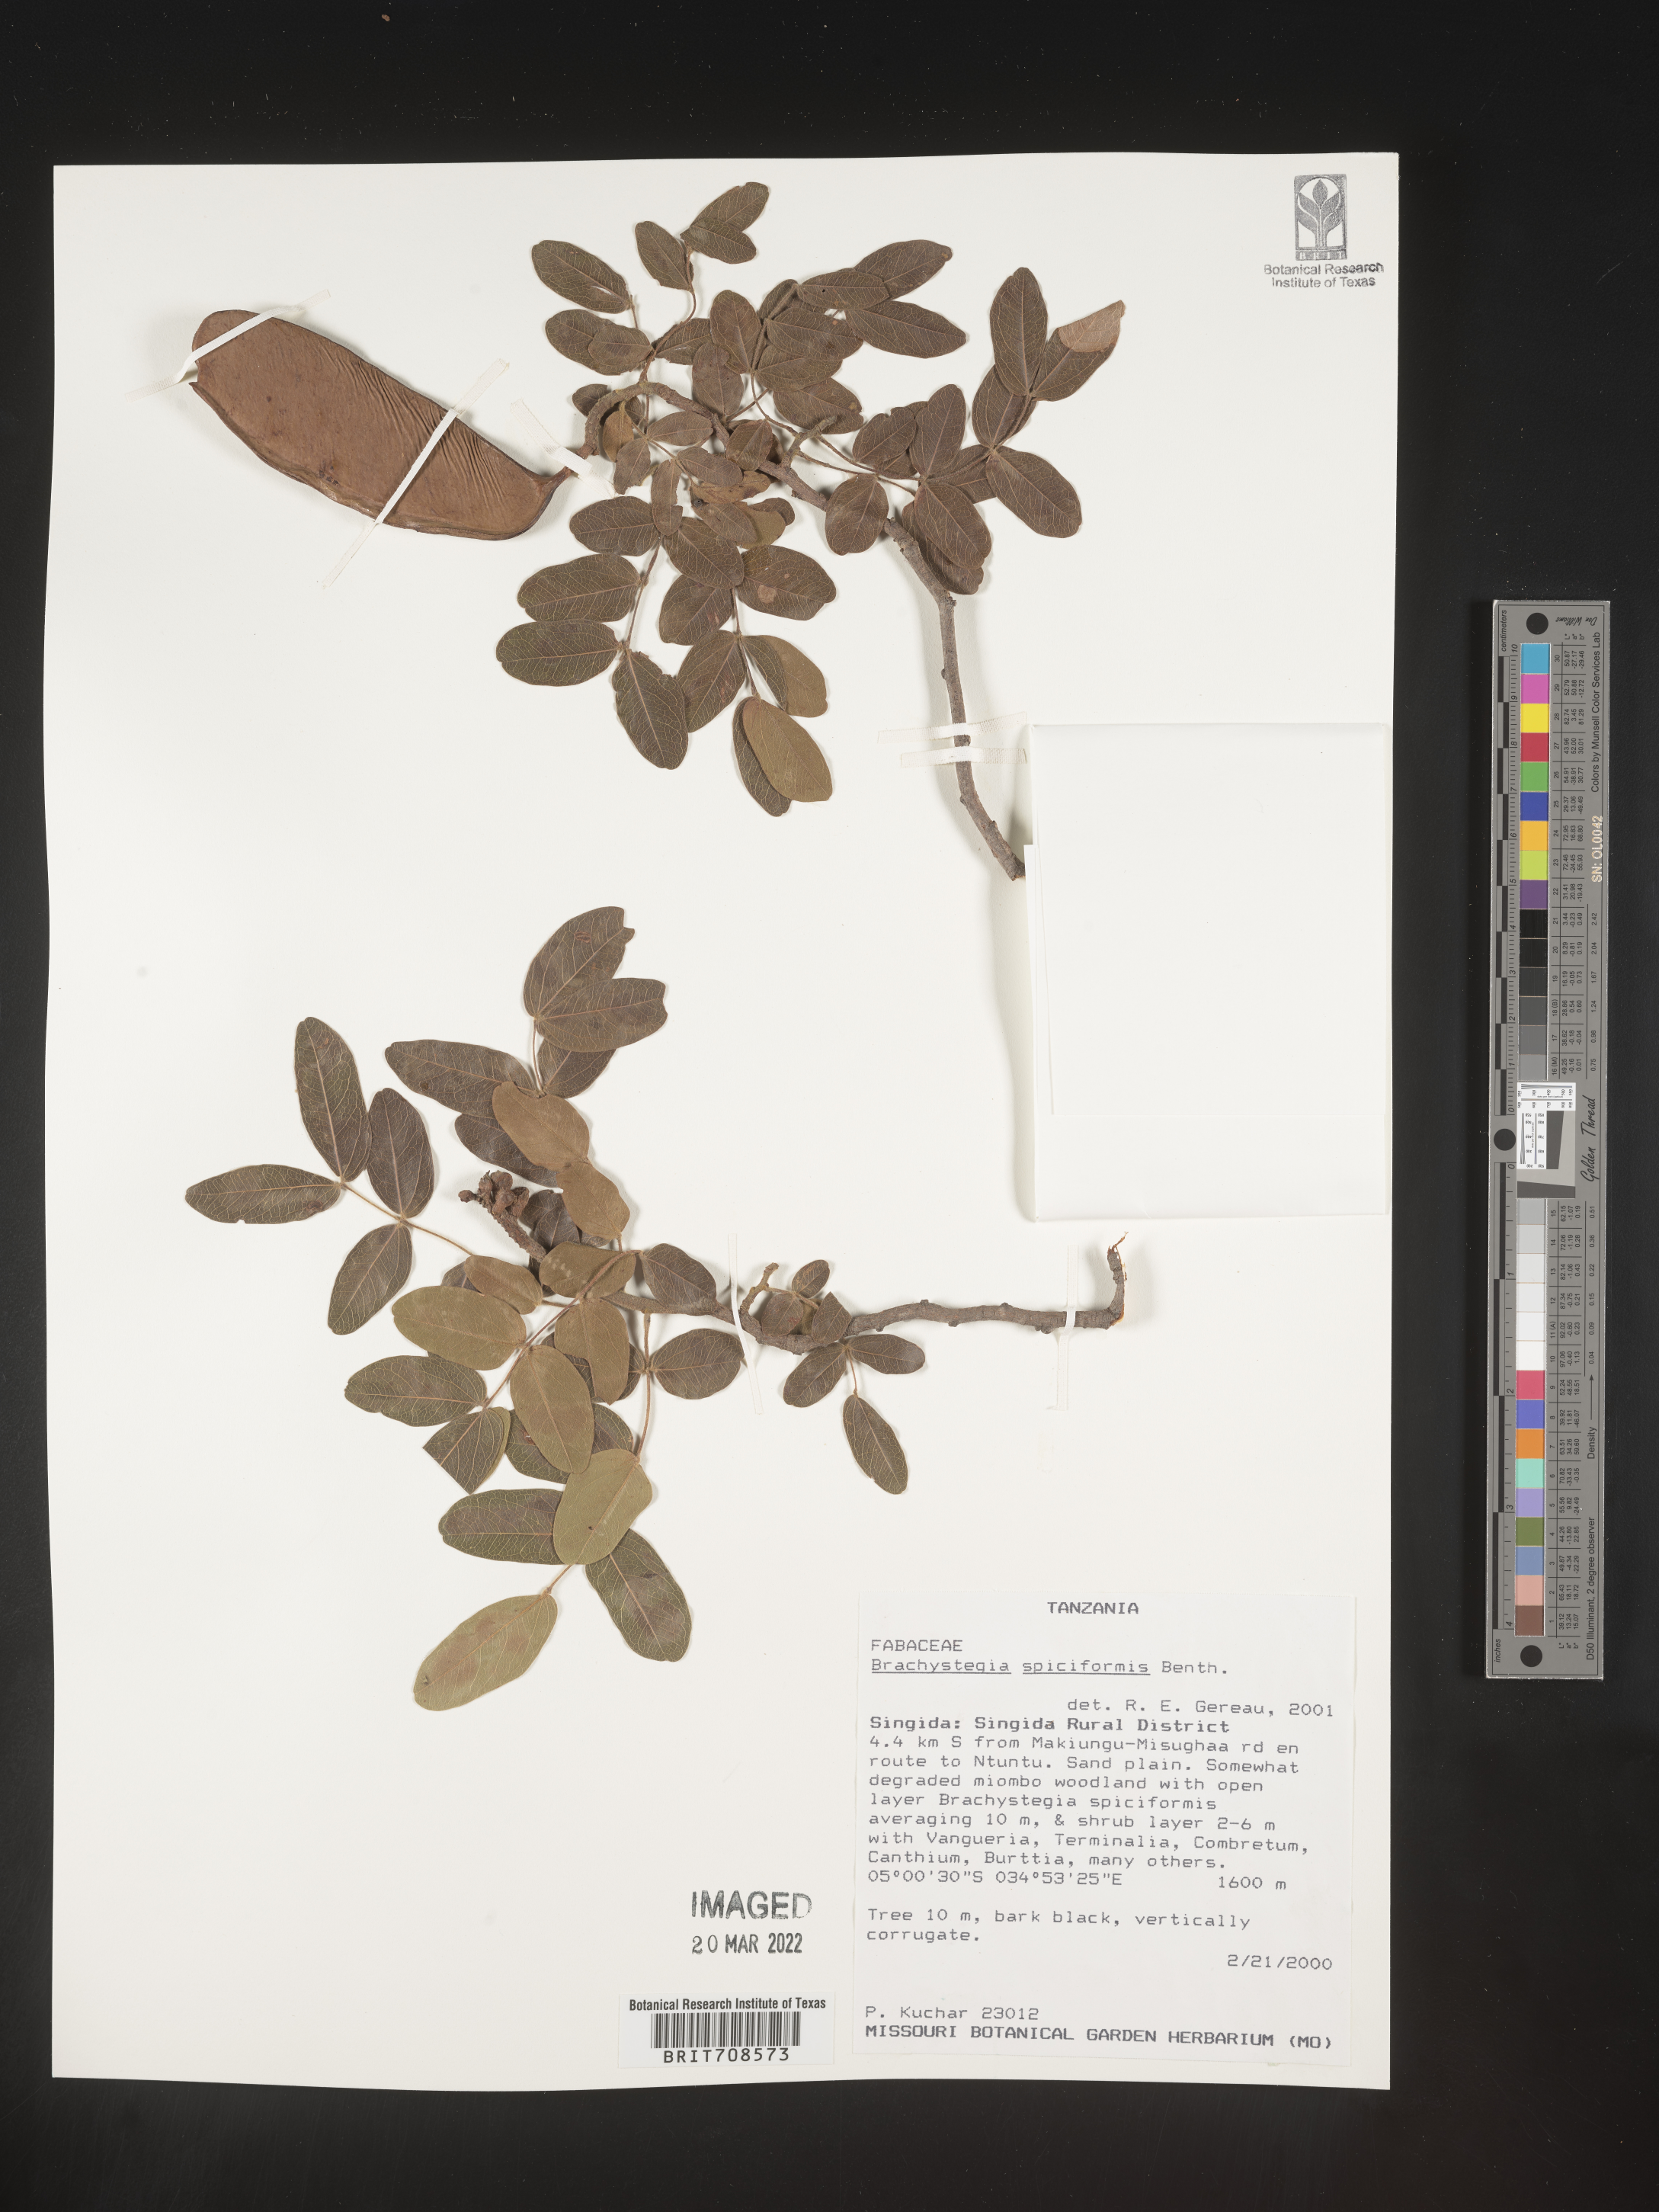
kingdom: Plantae
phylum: Tracheophyta
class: Magnoliopsida
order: Fabales
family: Fabaceae
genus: Brachystegia
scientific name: Brachystegia
